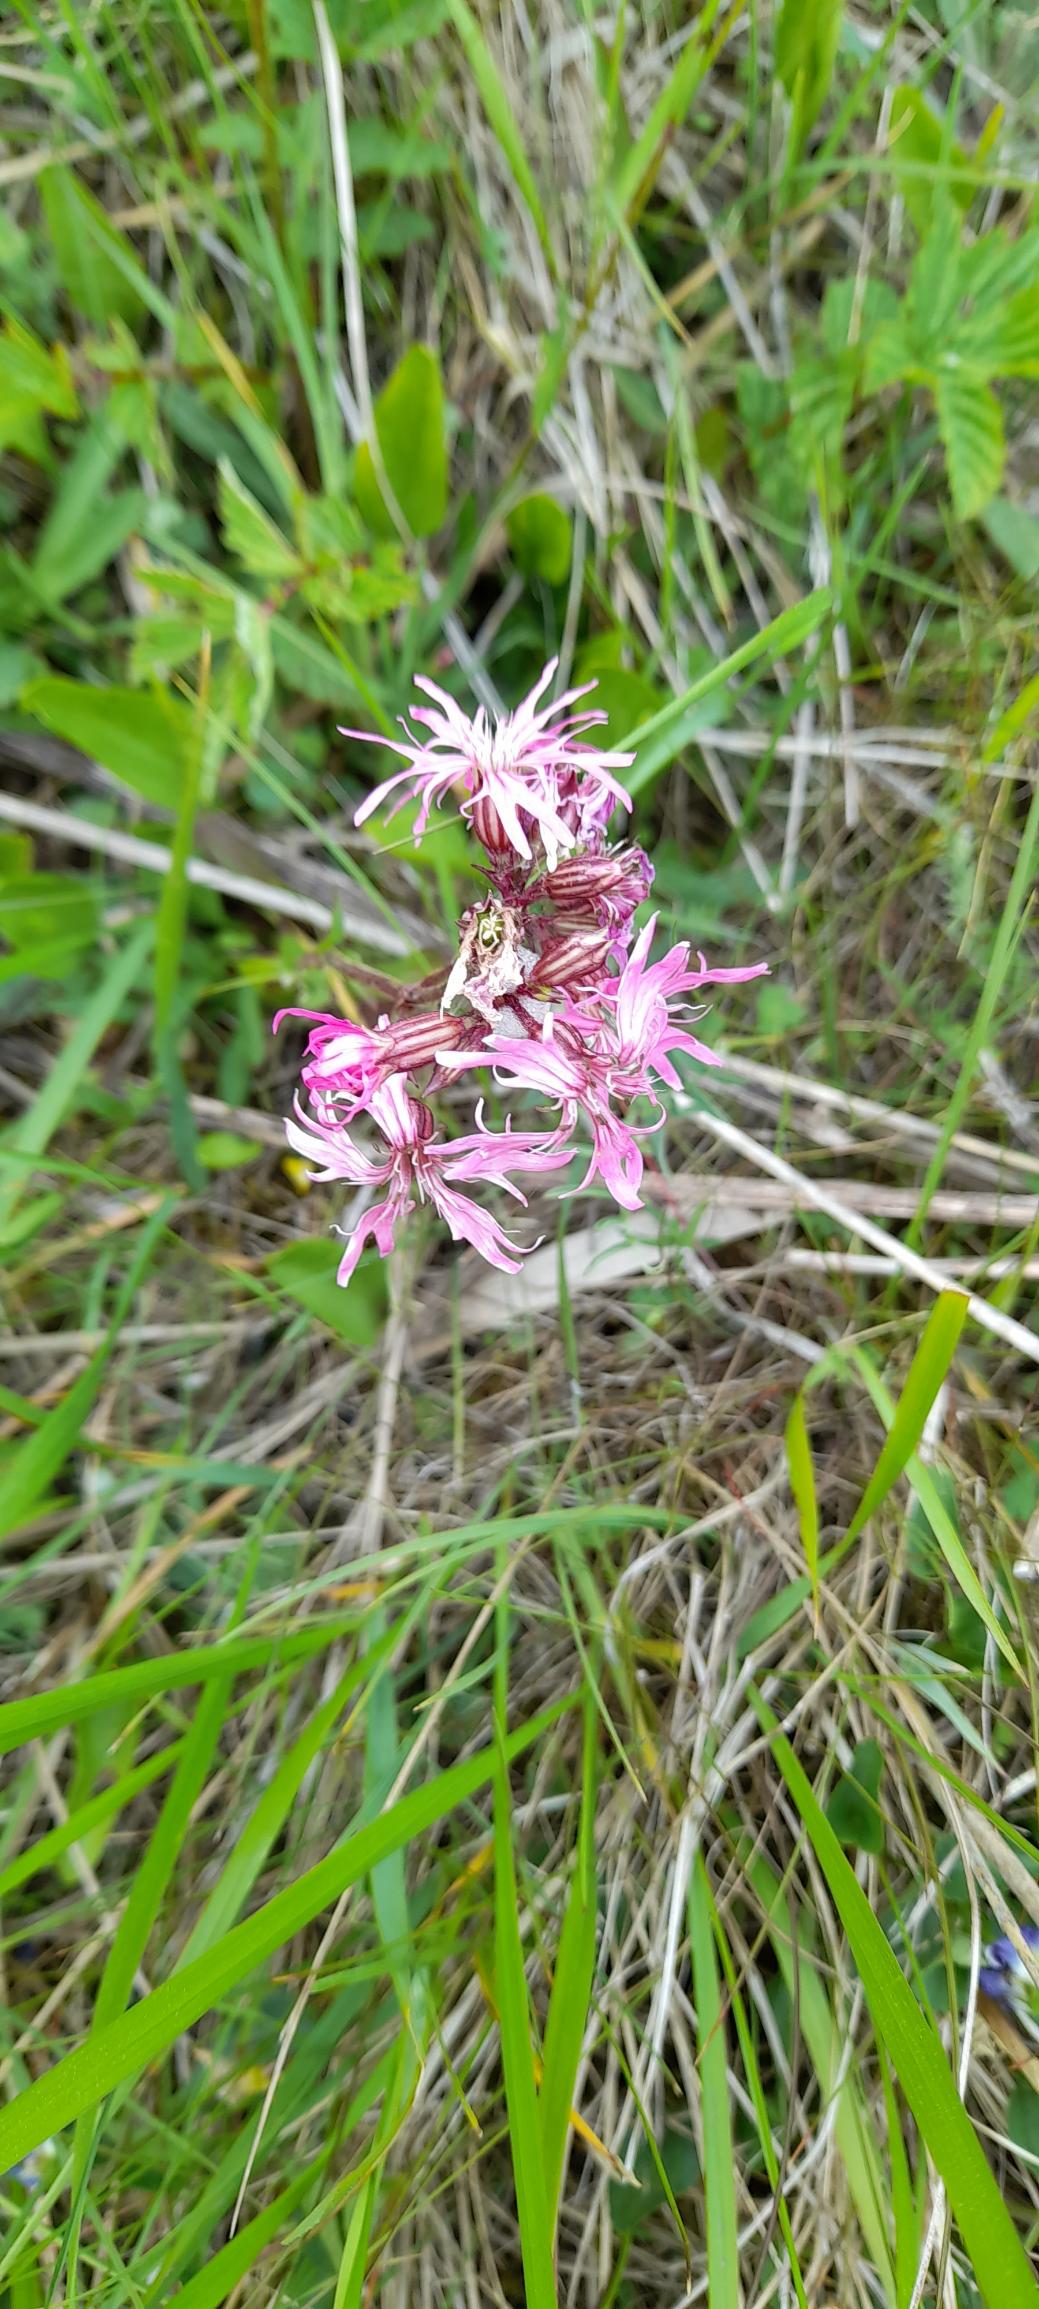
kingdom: Plantae
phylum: Tracheophyta
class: Magnoliopsida
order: Caryophyllales
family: Caryophyllaceae
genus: Silene
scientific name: Silene flos-cuculi
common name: Trævlekrone
